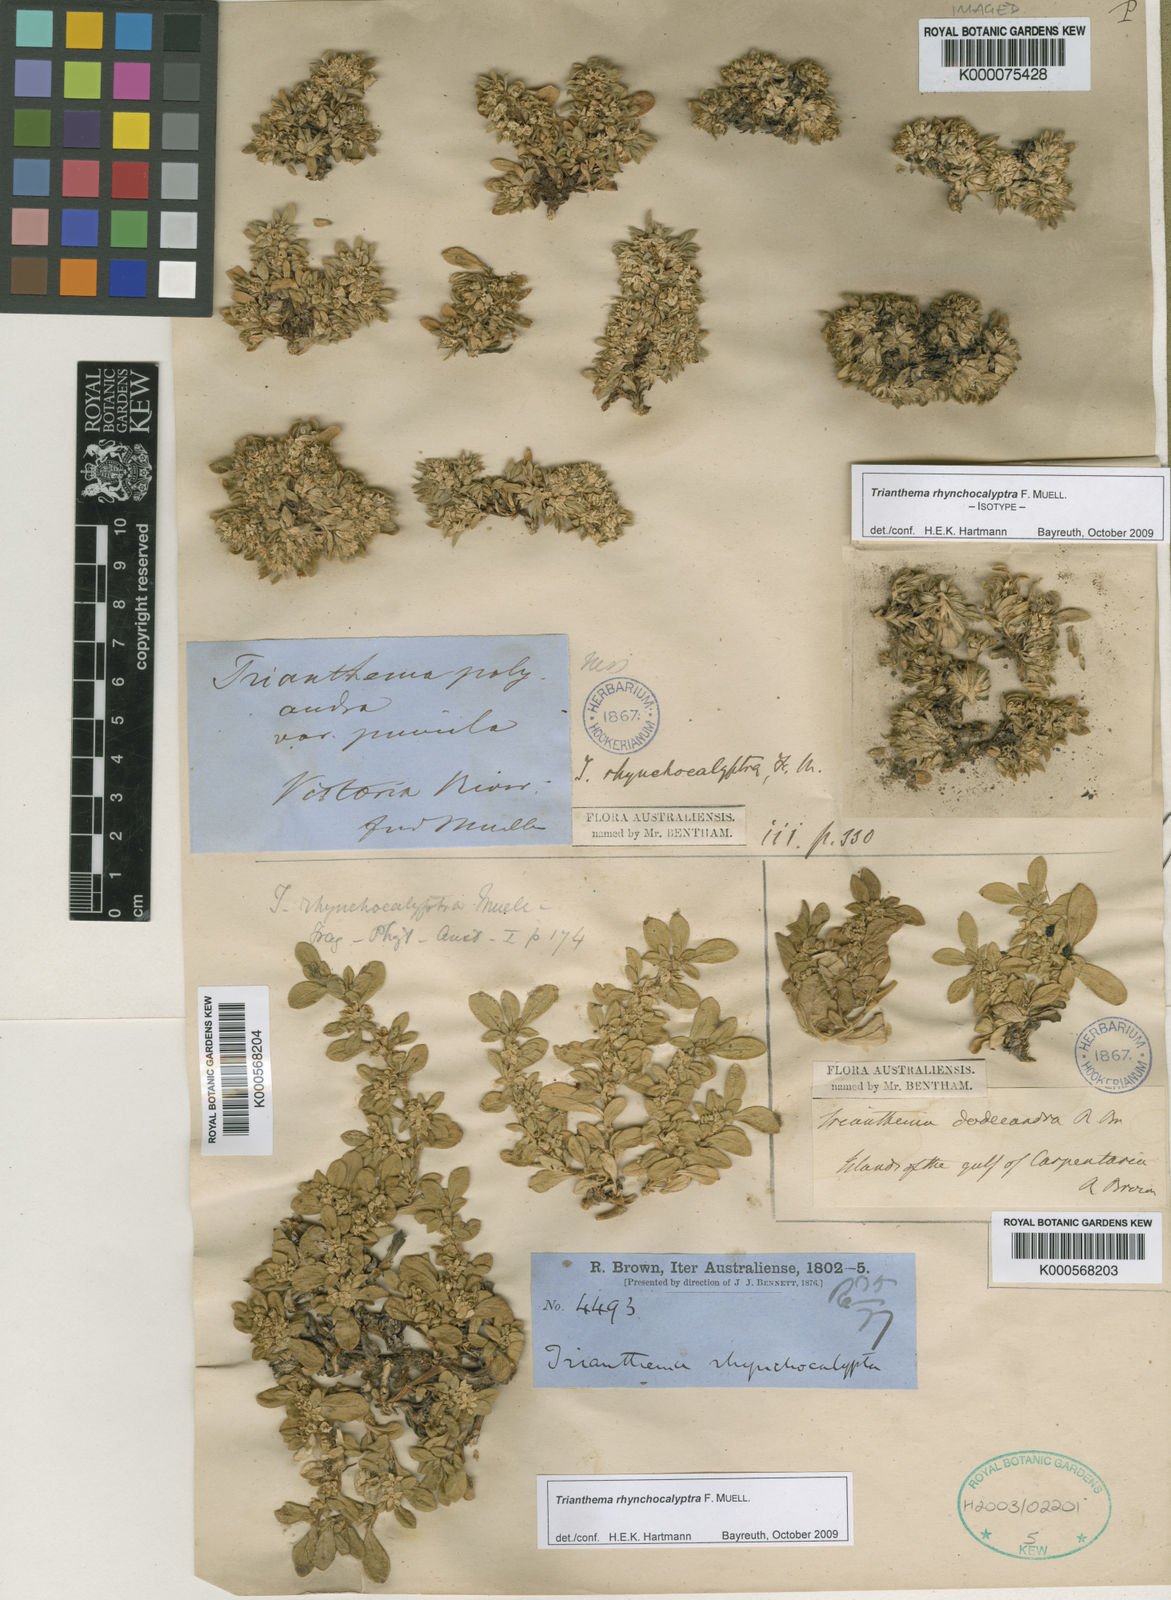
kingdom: Plantae
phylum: Tracheophyta
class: Magnoliopsida
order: Caryophyllales
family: Aizoaceae
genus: Trianthema
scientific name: Trianthema rhynchocalyptrum
